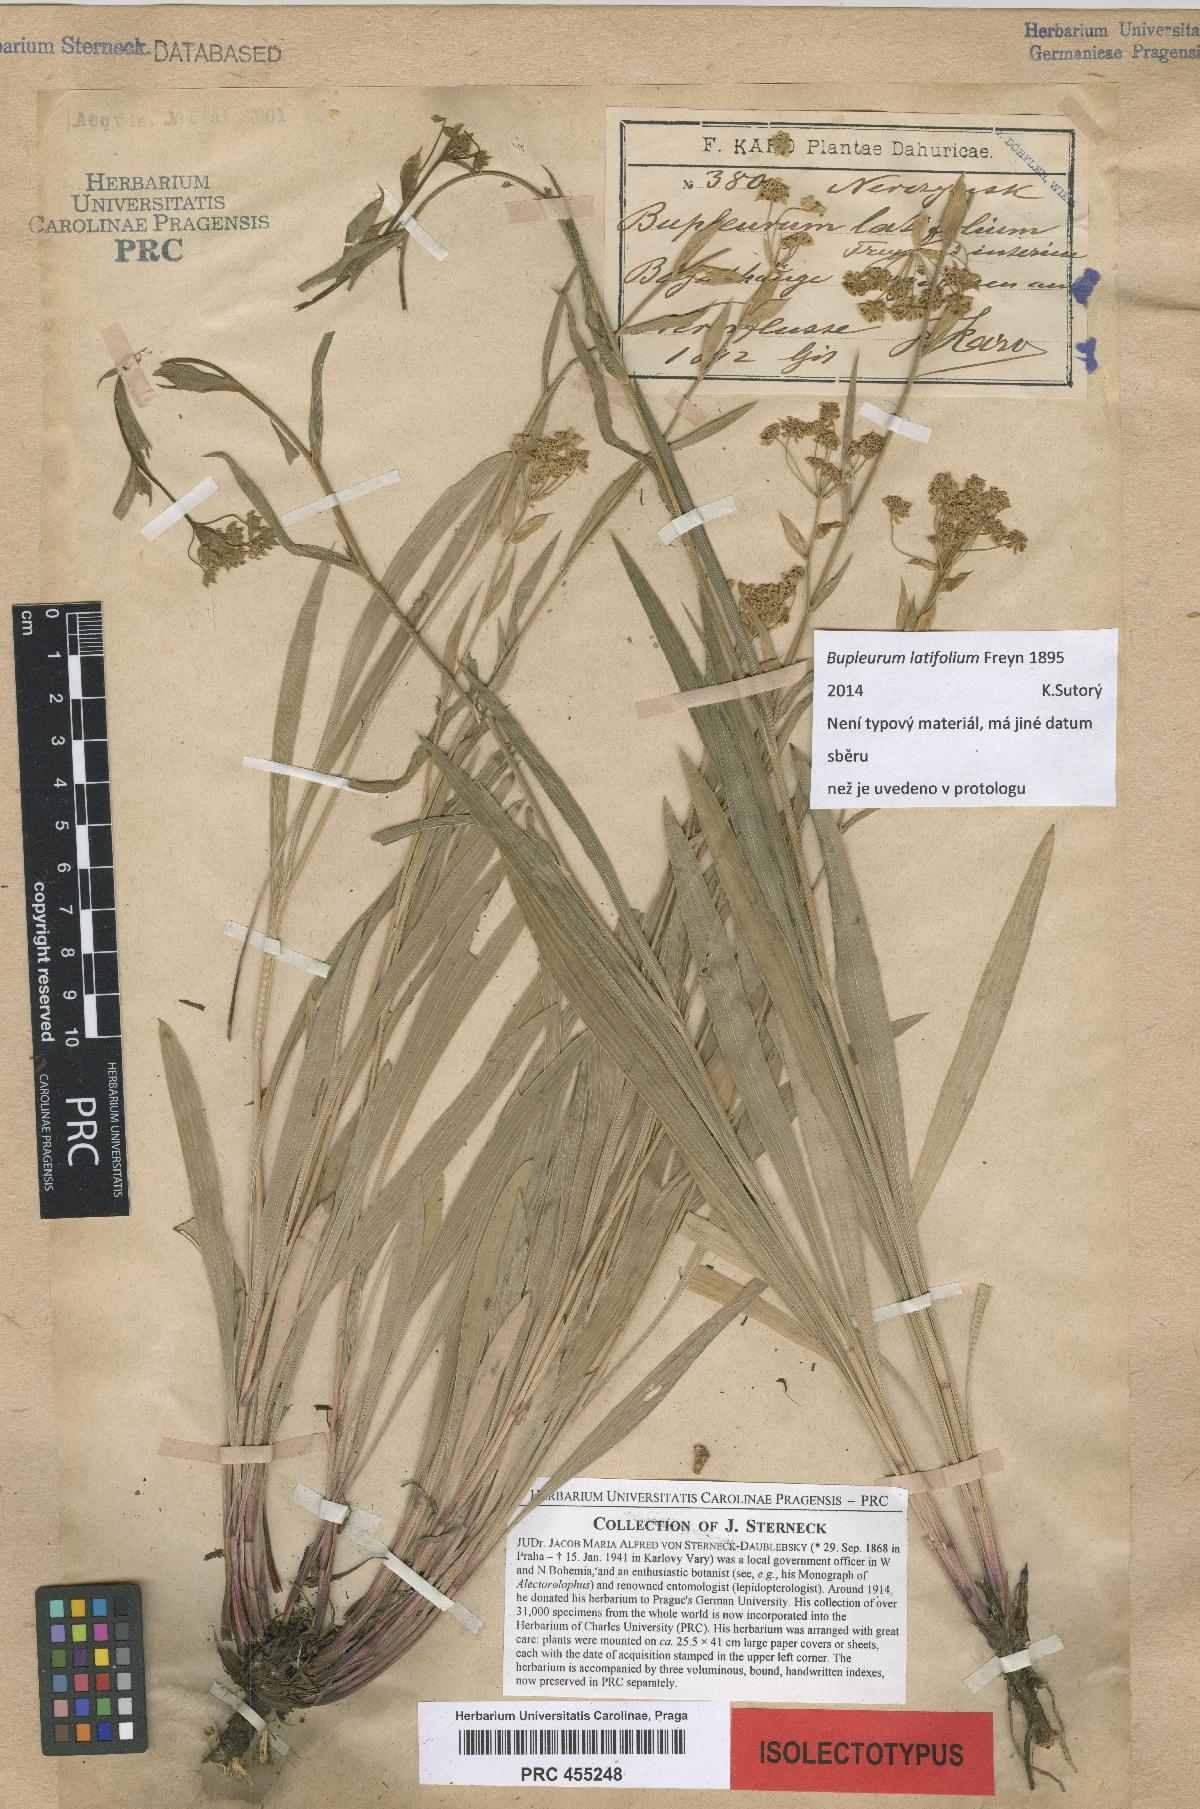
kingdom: Plantae
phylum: Tracheophyta
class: Magnoliopsida
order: Apiales
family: Apiaceae
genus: Bupleurum
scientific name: Bupleurum sibiricum
